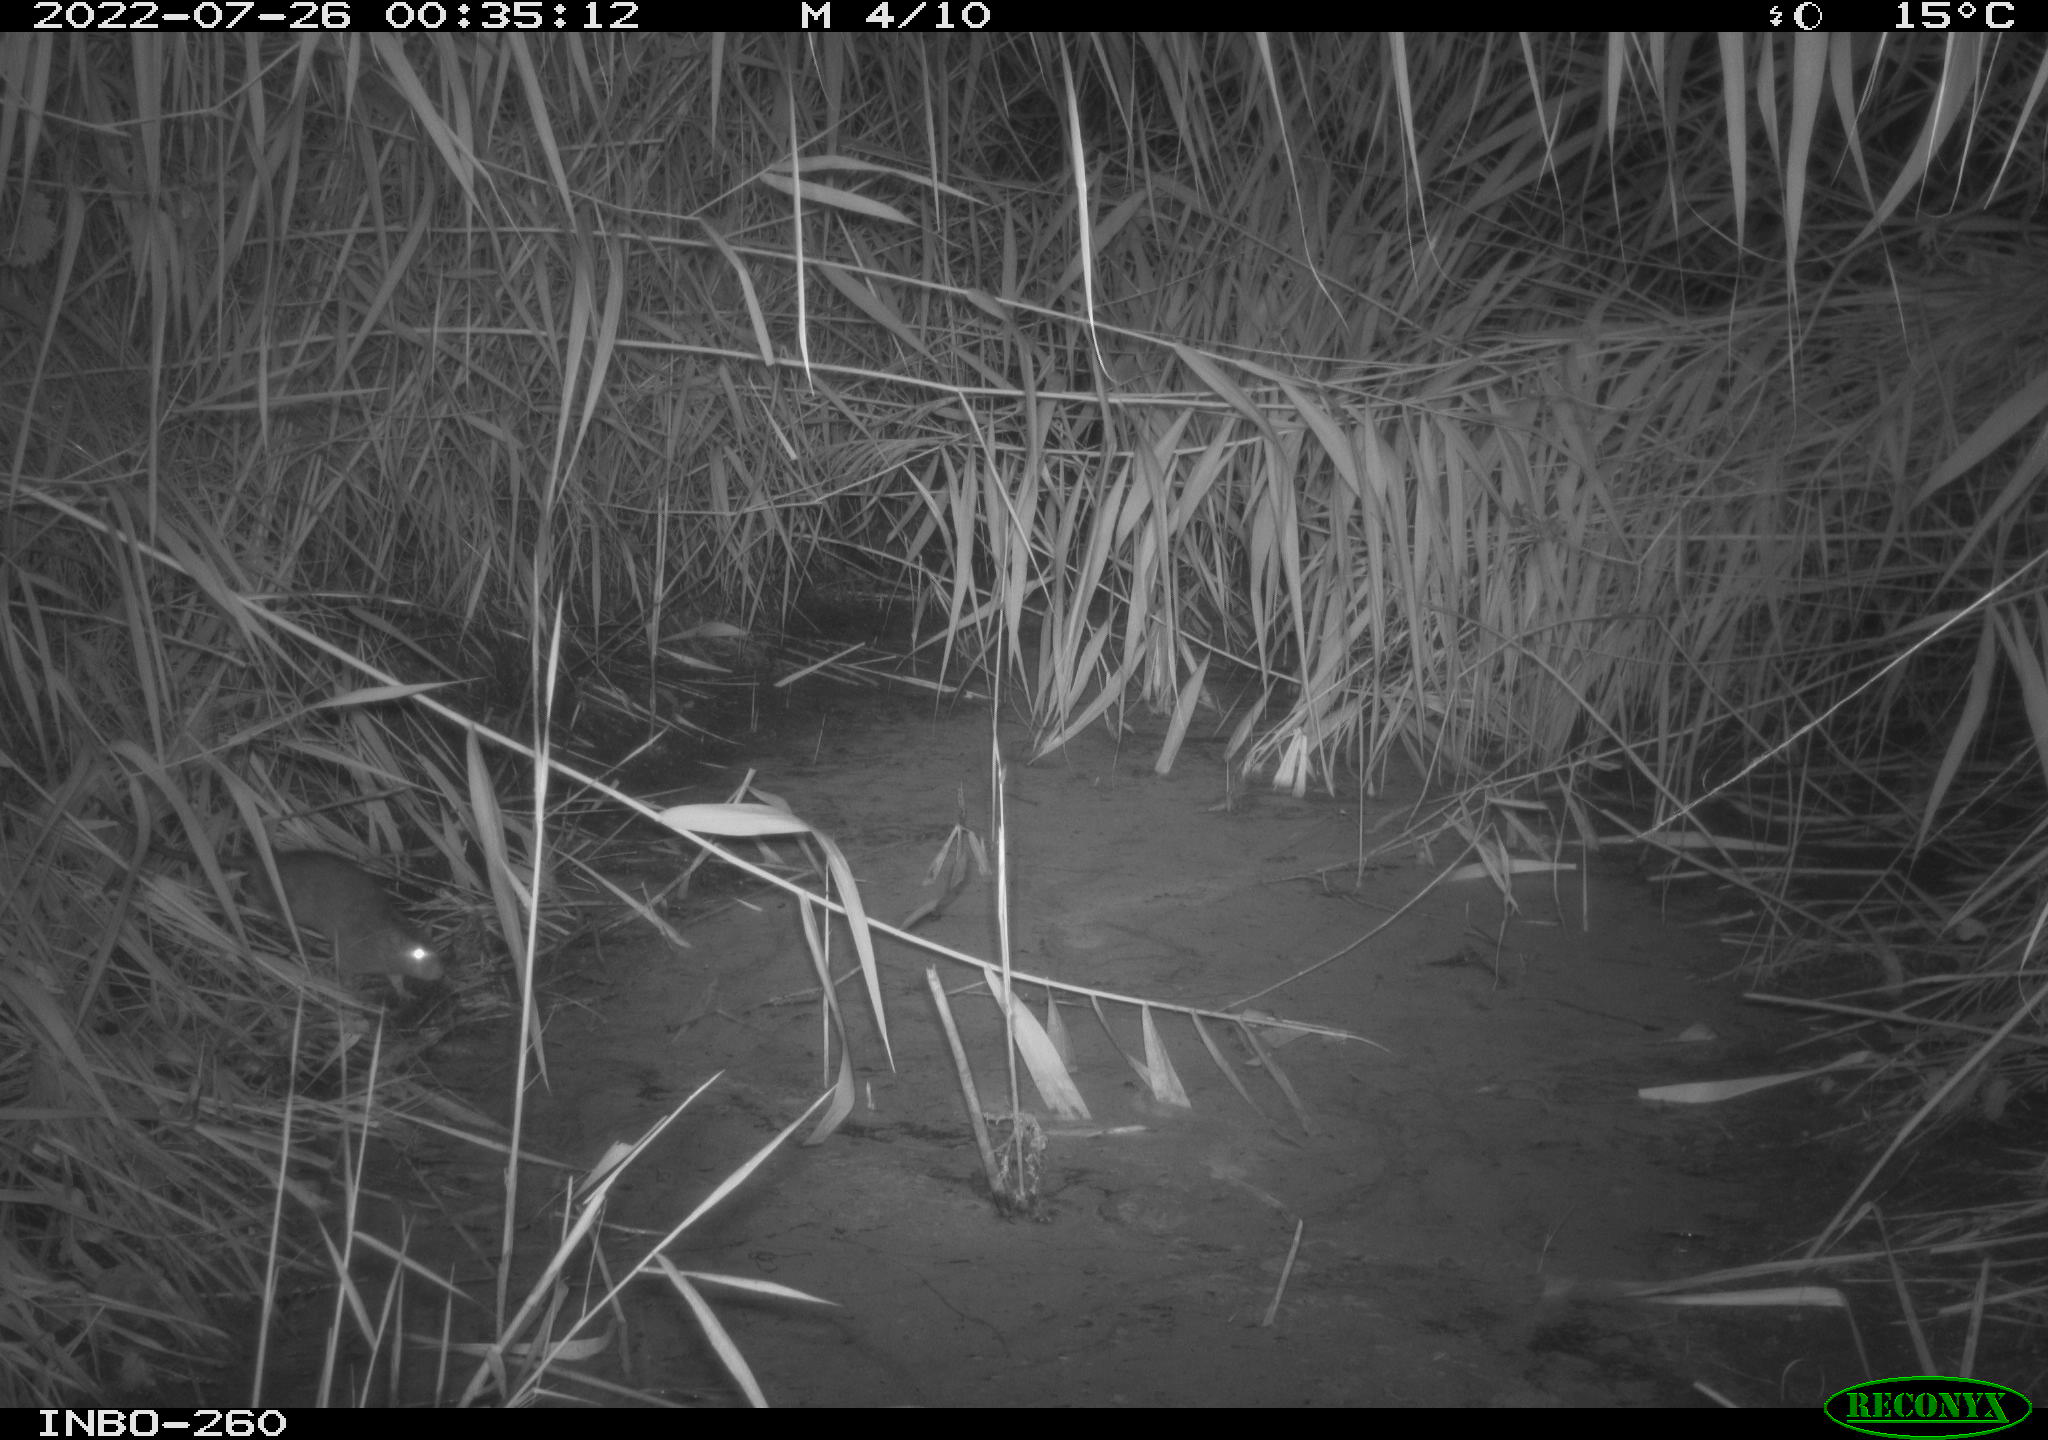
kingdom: Animalia
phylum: Chordata
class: Mammalia
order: Rodentia
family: Muridae
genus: Rattus
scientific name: Rattus norvegicus
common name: Brown rat
